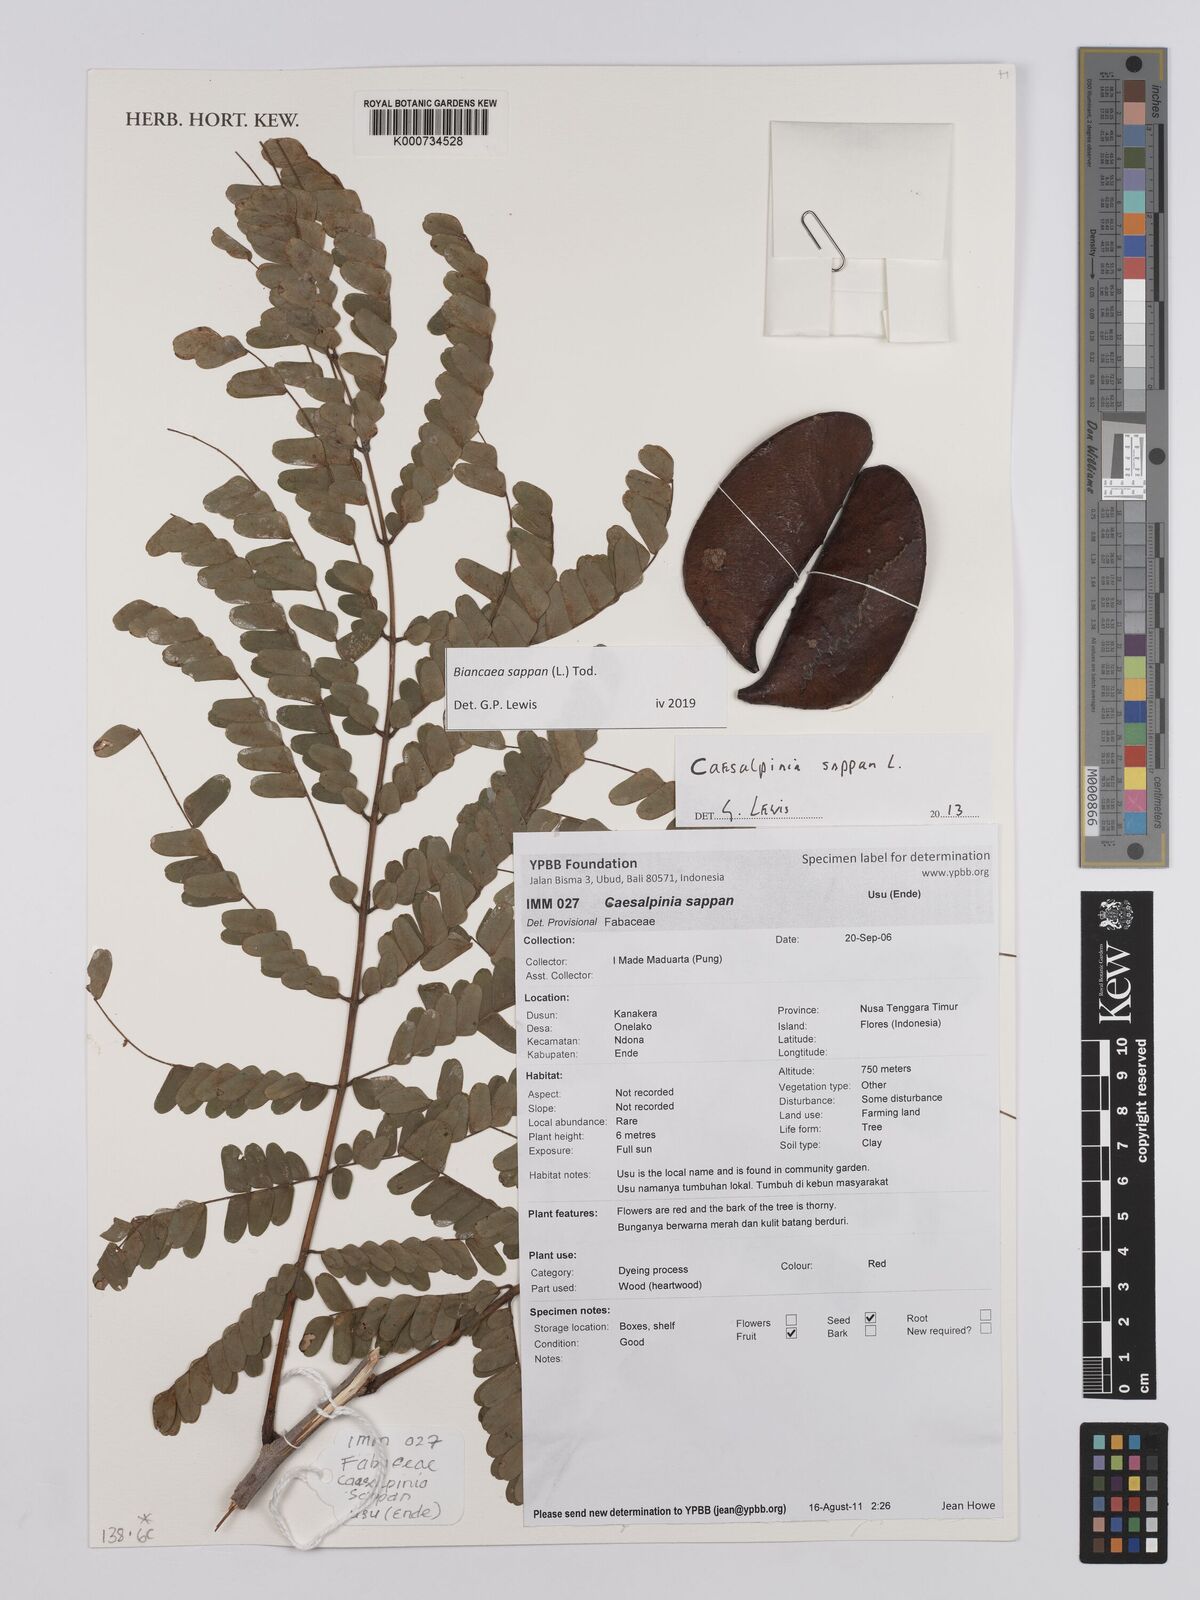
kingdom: Plantae
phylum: Tracheophyta
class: Magnoliopsida
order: Fabales
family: Fabaceae
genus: Biancaea
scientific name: Biancaea sappan
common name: Sappan
